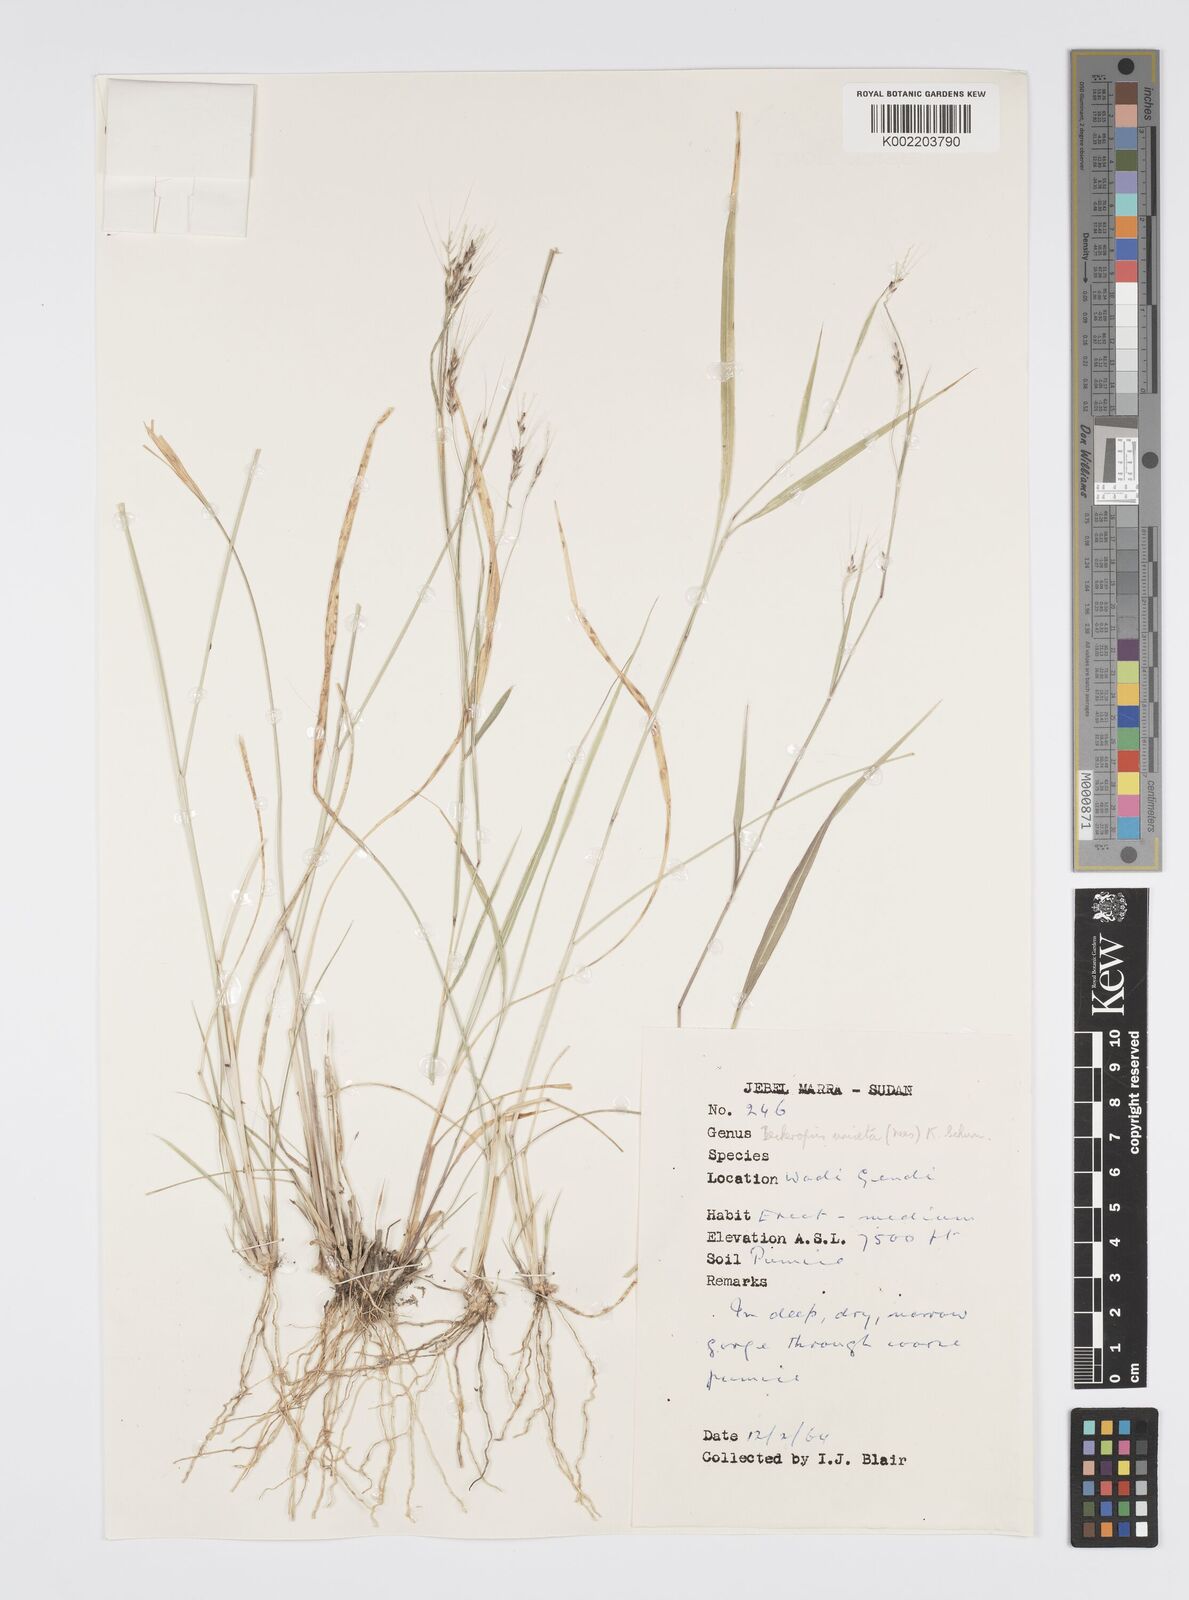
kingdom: Plantae
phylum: Tracheophyta
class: Liliopsida
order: Poales
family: Poaceae
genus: Cenchrus
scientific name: Cenchrus unisetus
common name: Natal grass
